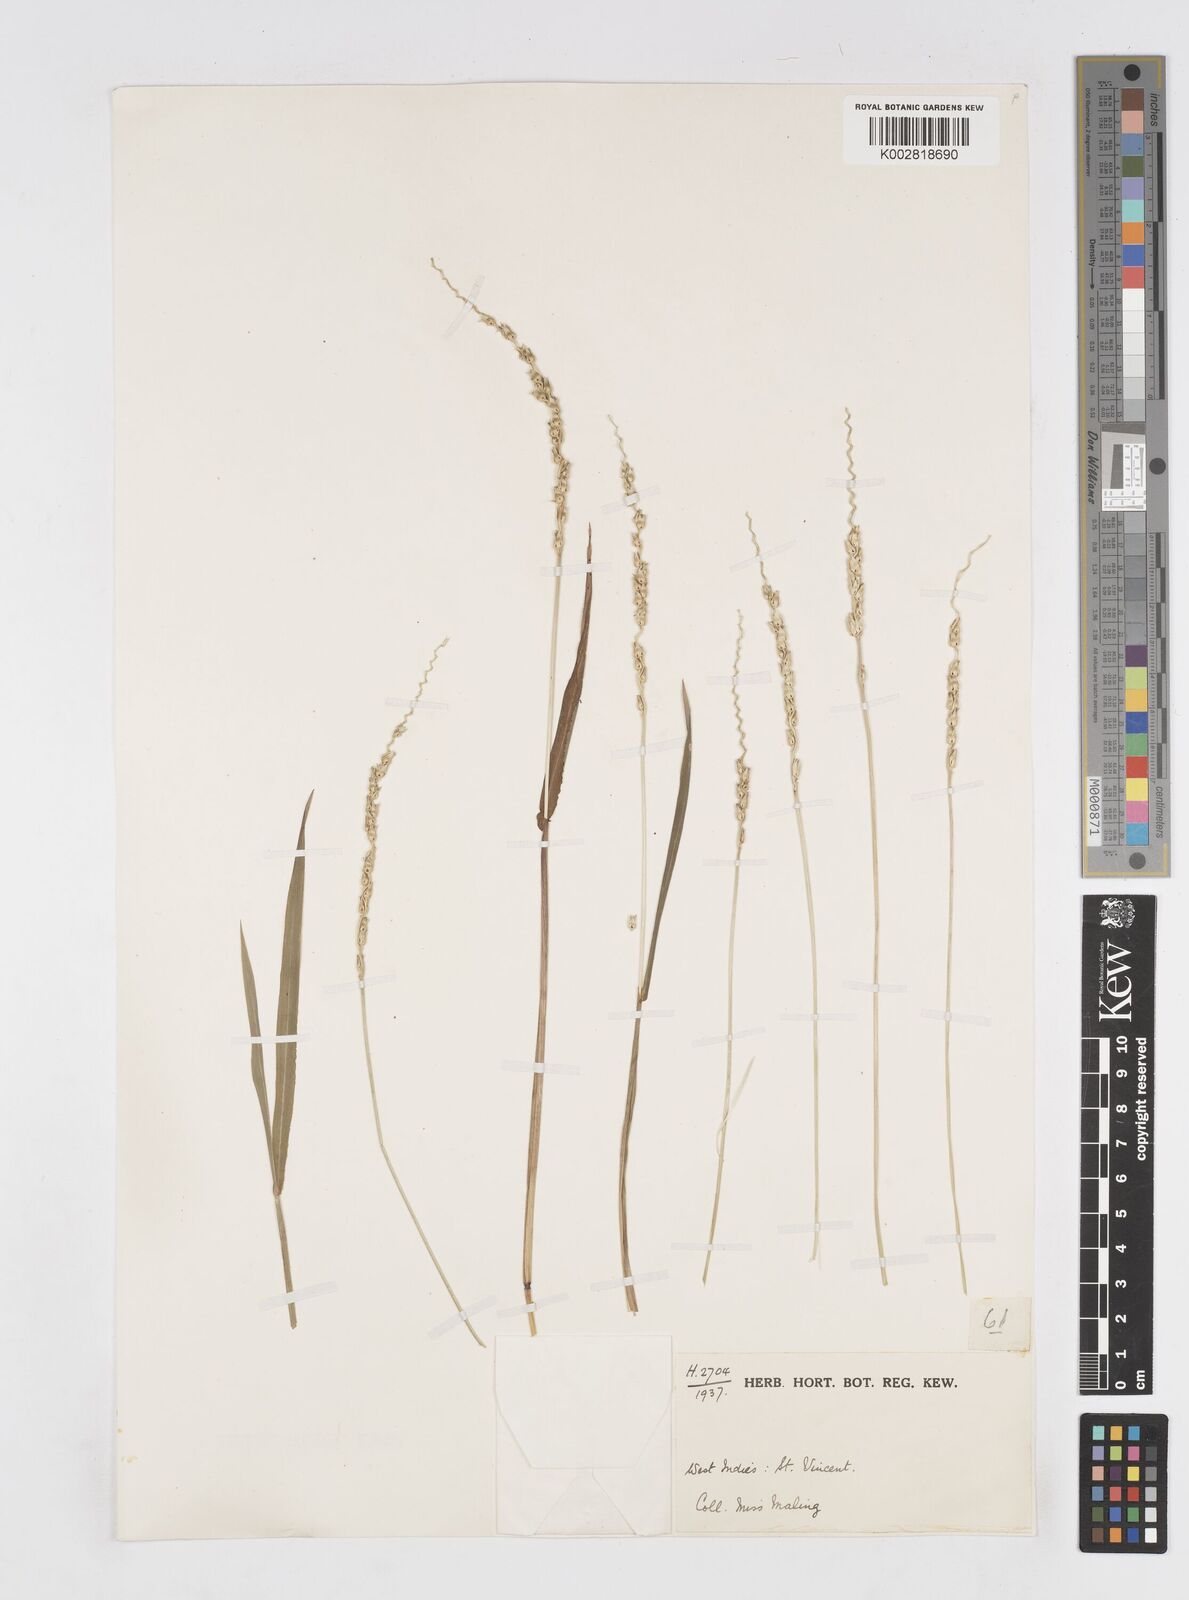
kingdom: Plantae
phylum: Tracheophyta
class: Liliopsida
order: Poales
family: Poaceae
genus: Anthephora
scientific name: Anthephora hermaphrodita
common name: Oldfield grass
